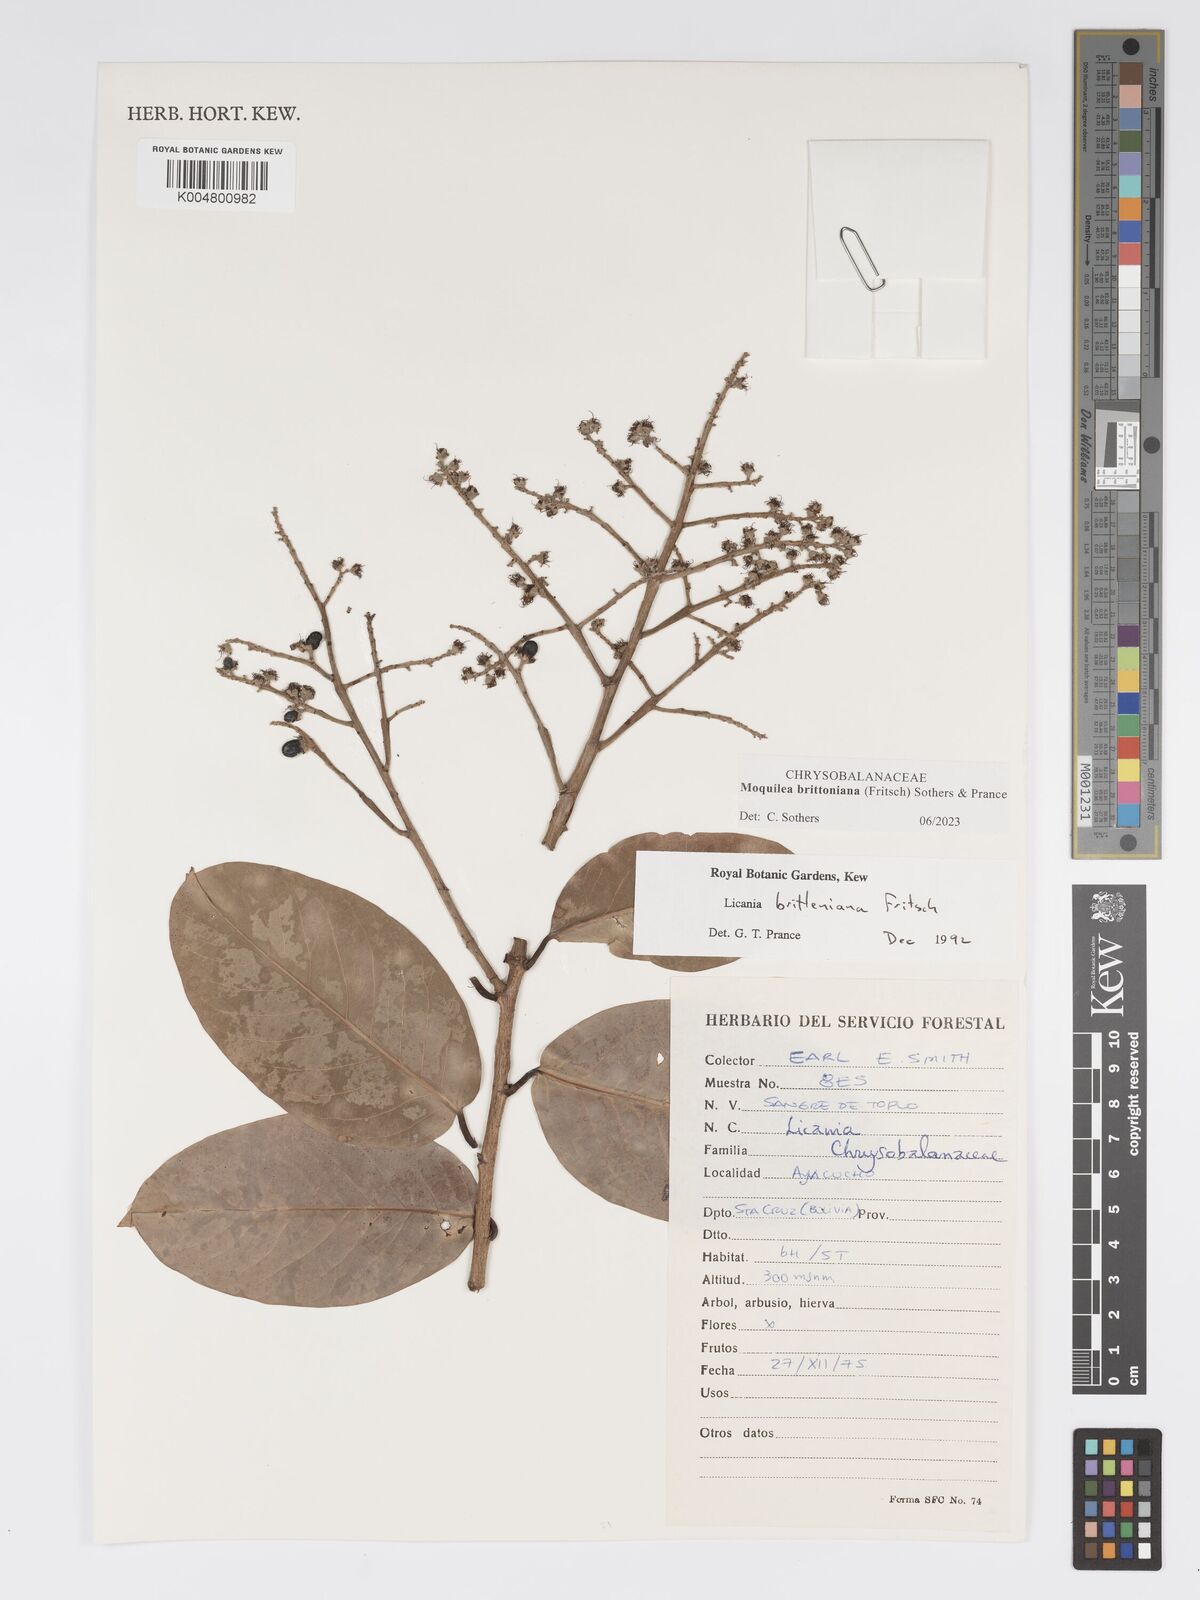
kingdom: Plantae
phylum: Tracheophyta
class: Magnoliopsida
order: Malpighiales
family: Chrysobalanaceae
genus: Moquilea
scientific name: Moquilea brittoniana
